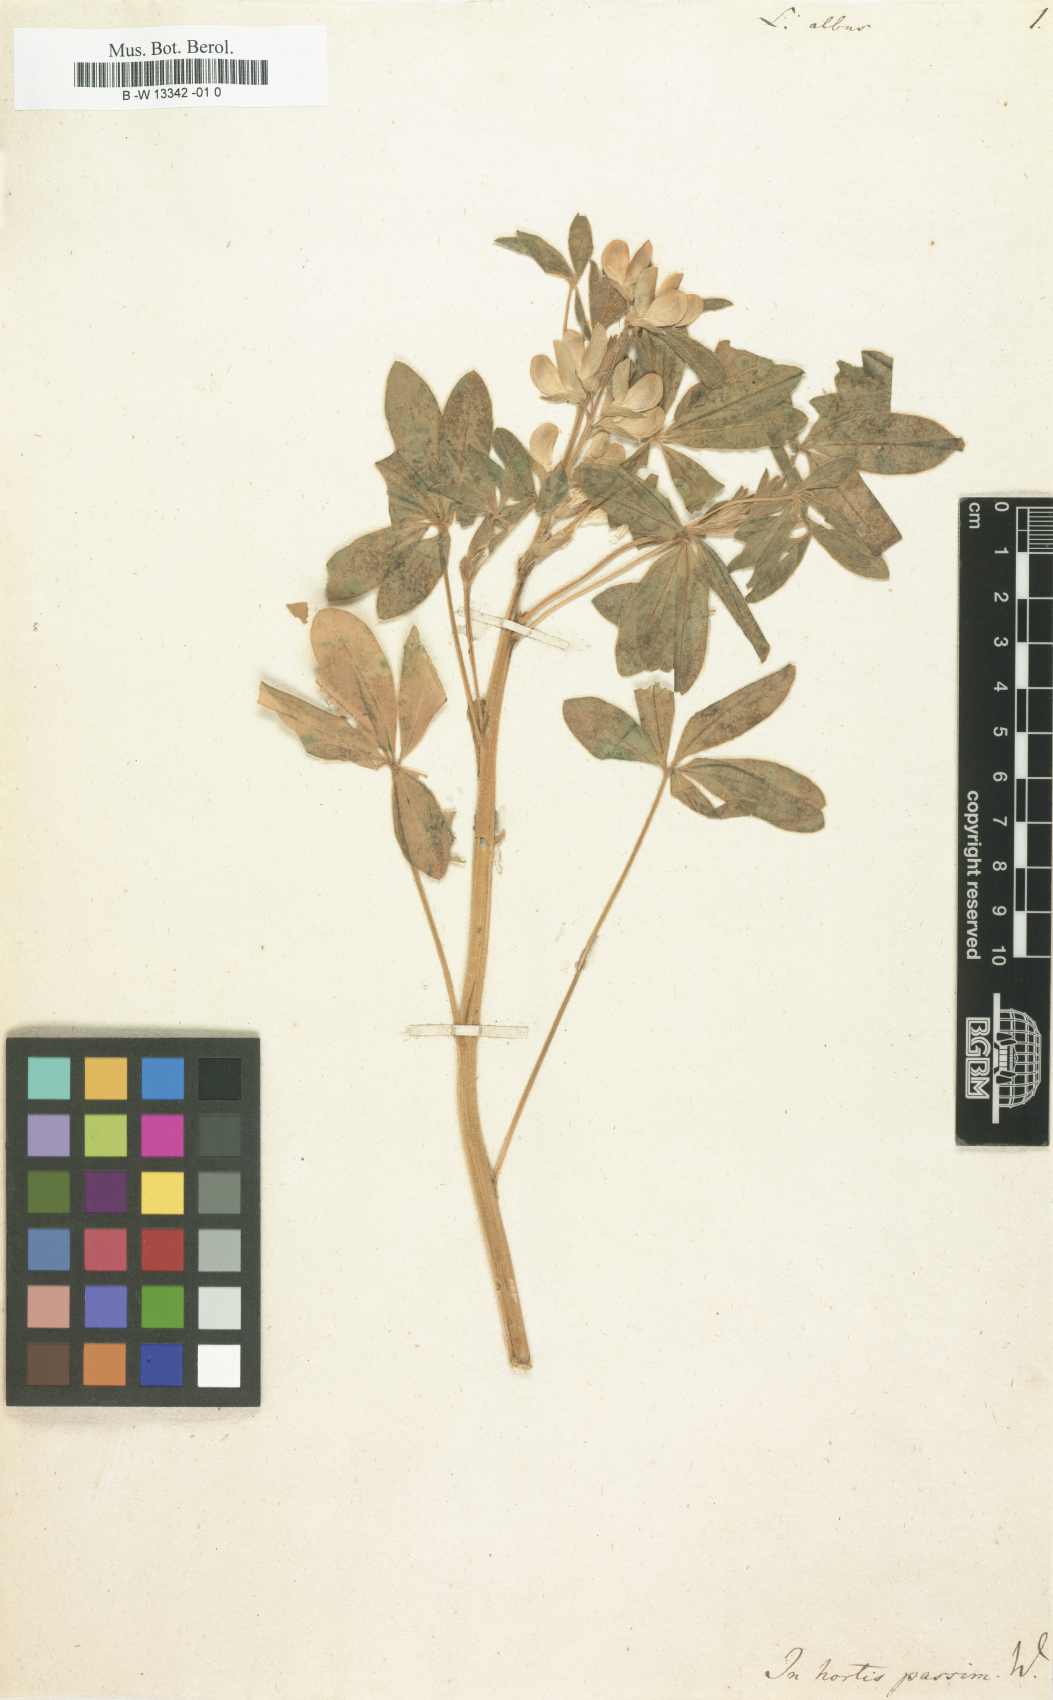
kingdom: Plantae
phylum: Tracheophyta
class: Magnoliopsida
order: Fabales
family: Fabaceae
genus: Lupinus
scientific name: Lupinus albus
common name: White lupin
